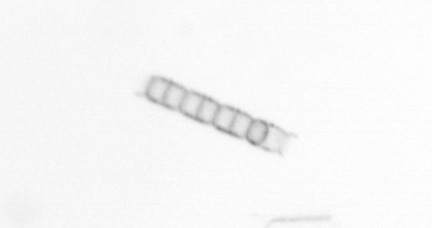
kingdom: Chromista
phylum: Ochrophyta
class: Bacillariophyceae
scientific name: Bacillariophyceae
